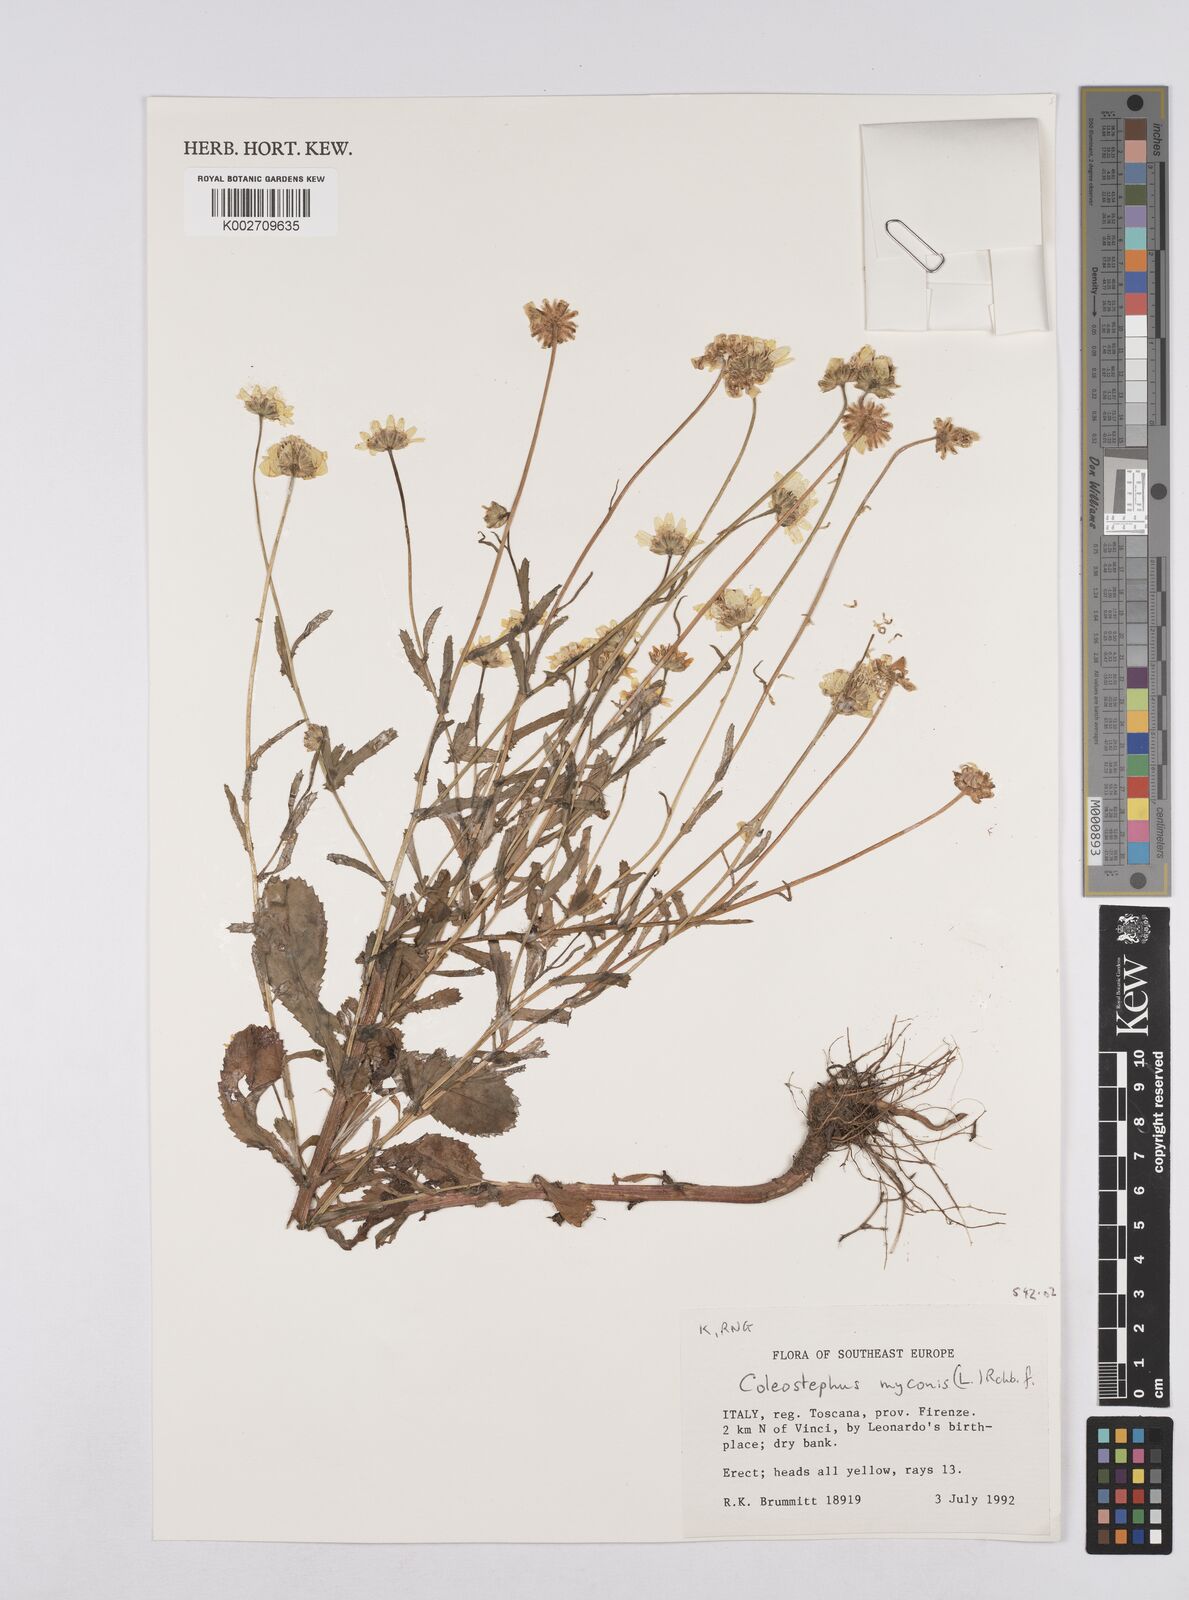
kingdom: Plantae
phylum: Tracheophyta
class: Magnoliopsida
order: Asterales
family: Asteraceae
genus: Coleostephus
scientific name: Coleostephus myconis
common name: Mediterranean marigold
